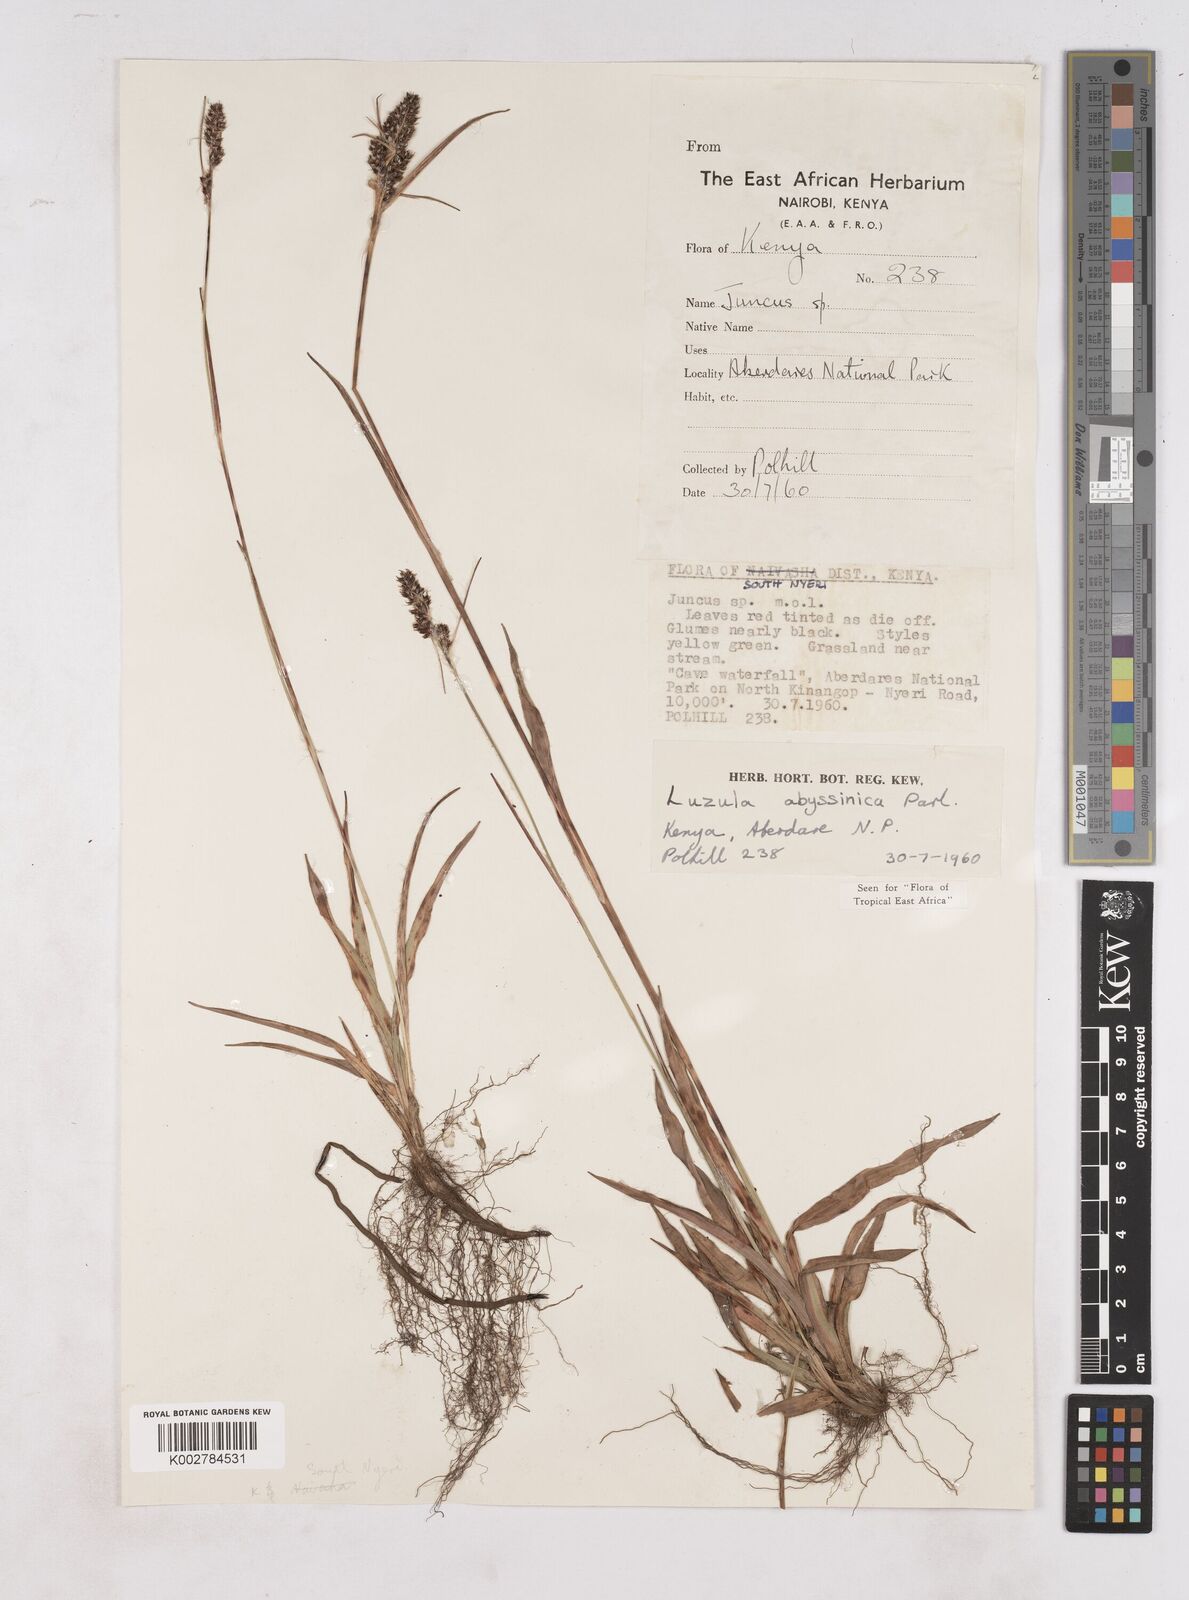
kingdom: Plantae
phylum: Tracheophyta
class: Liliopsida
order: Poales
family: Juncaceae
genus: Luzula
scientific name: Luzula abyssinica
